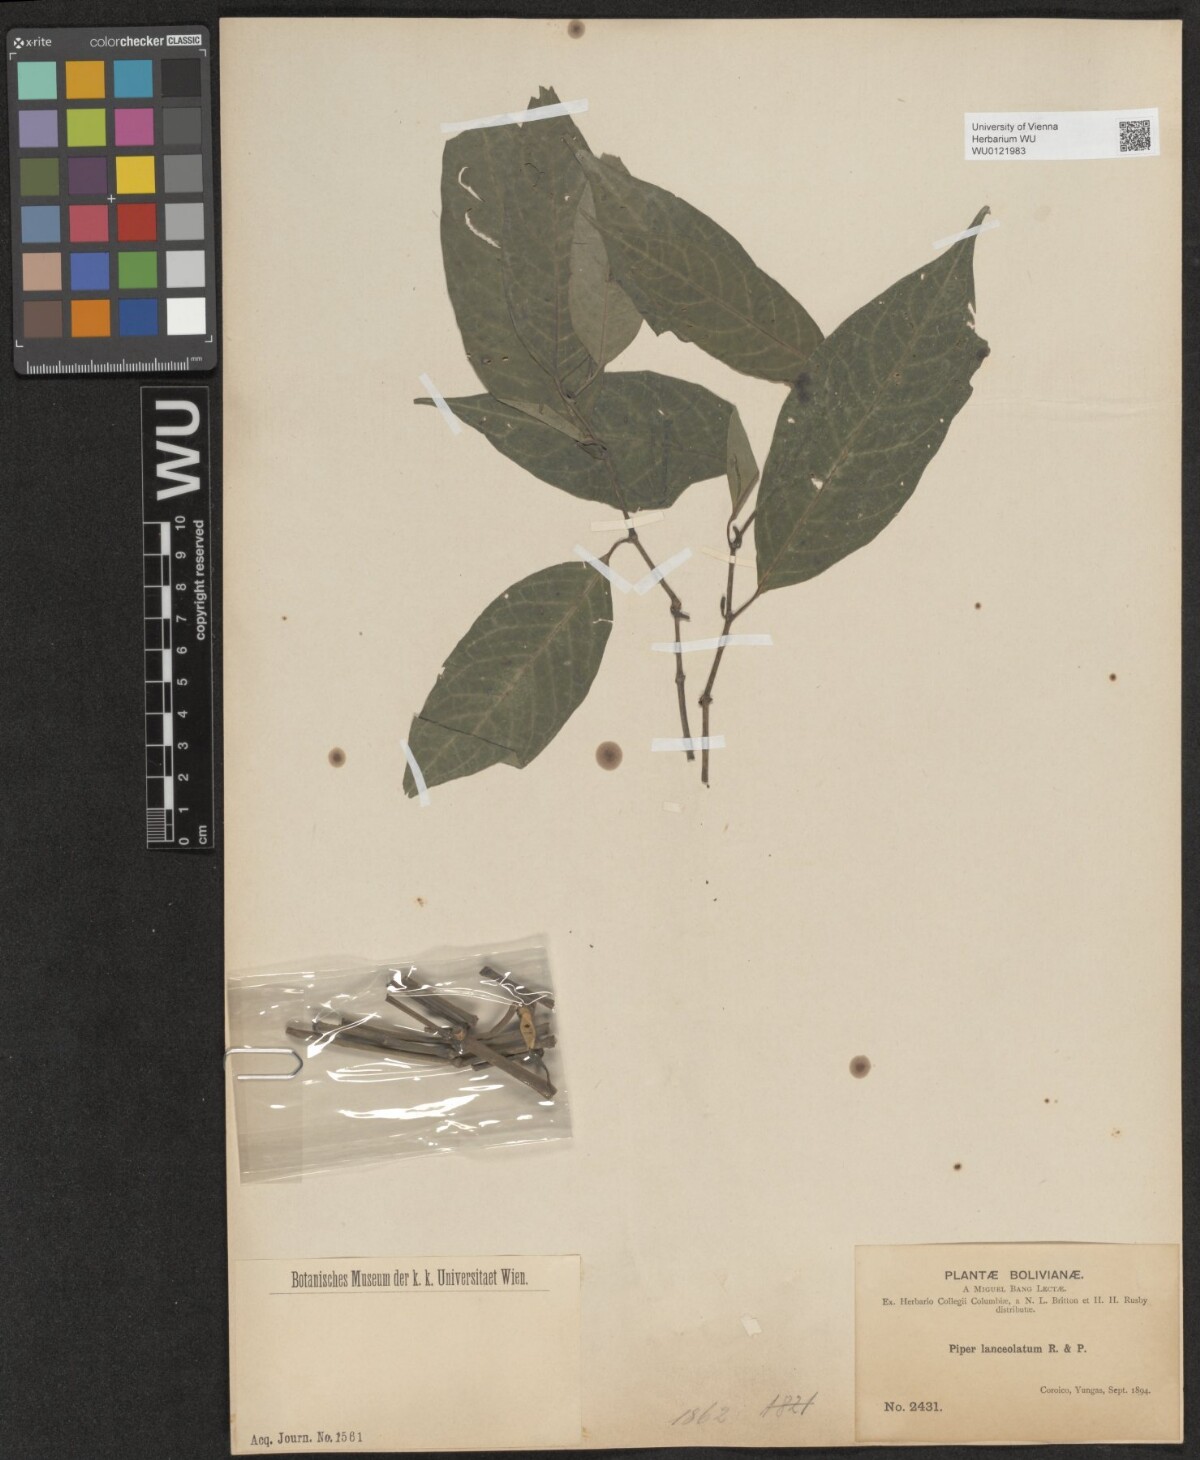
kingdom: Plantae
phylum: Tracheophyta
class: Magnoliopsida
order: Piperales
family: Piperaceae
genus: Piper
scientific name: Piper lanceolatum
